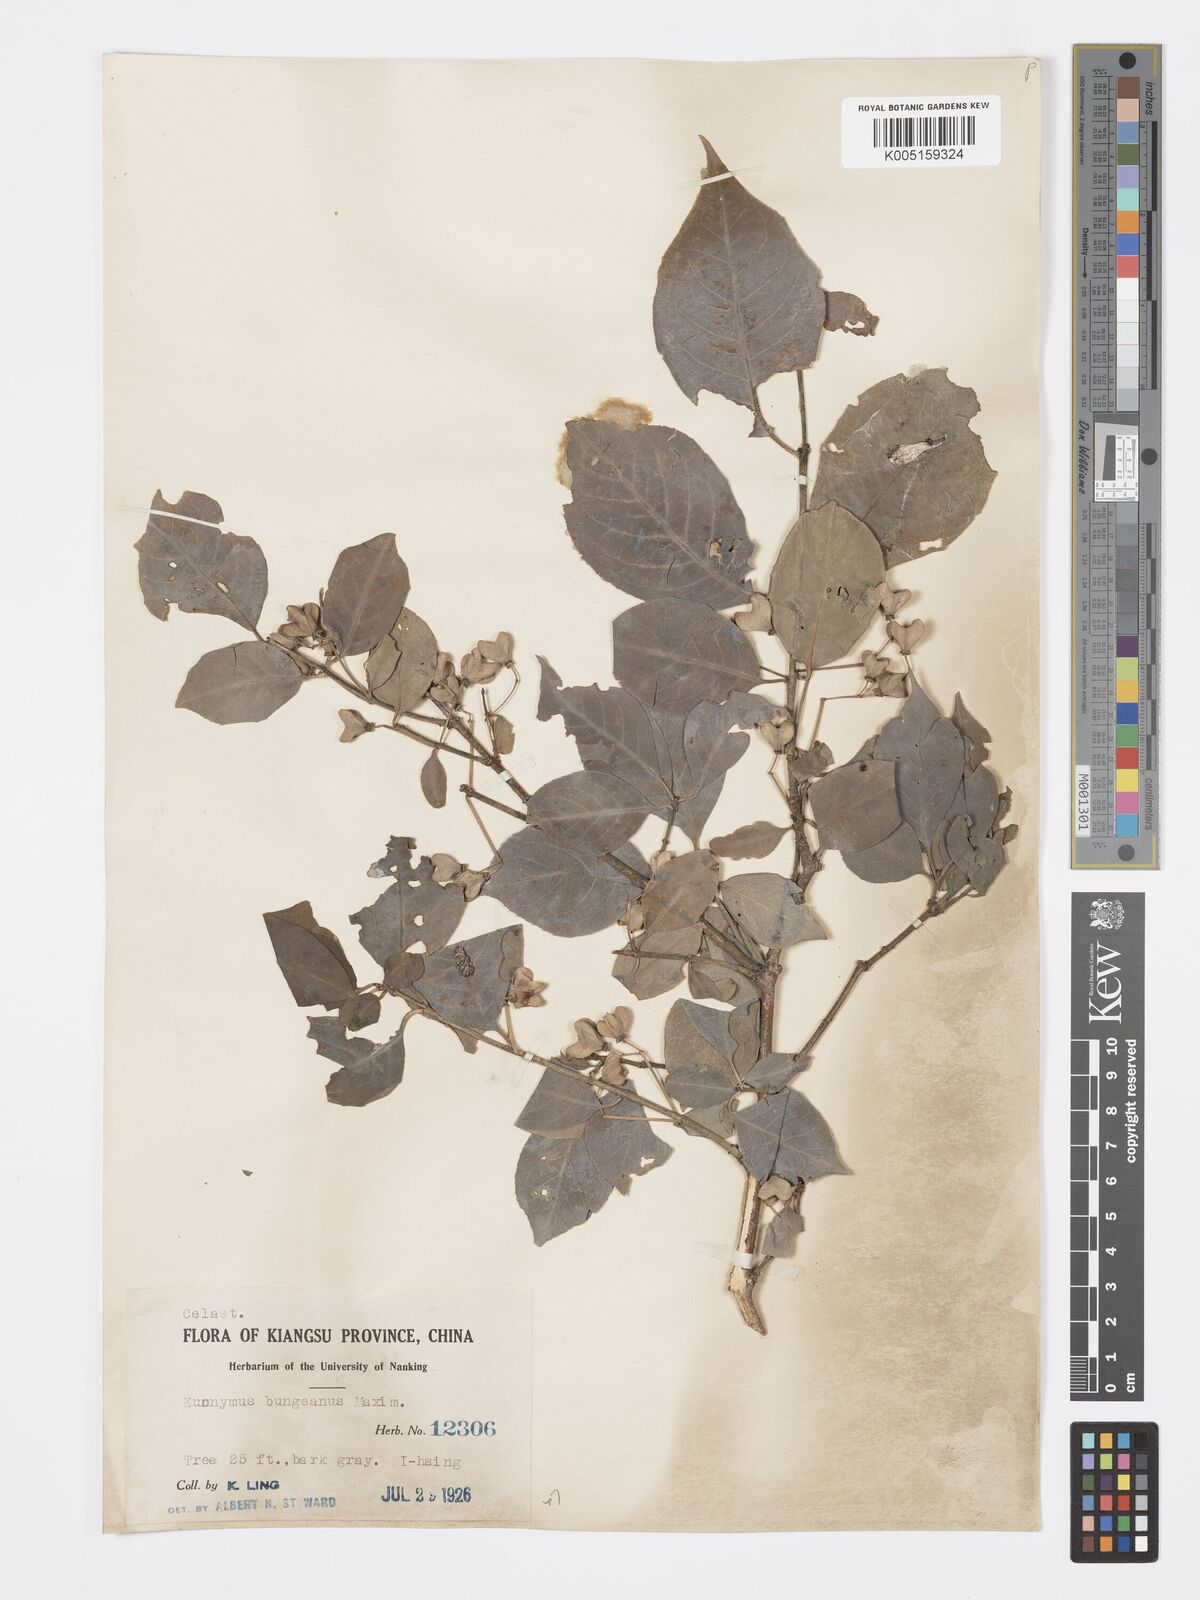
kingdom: Plantae
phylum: Tracheophyta
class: Magnoliopsida
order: Celastrales
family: Celastraceae
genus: Euonymus
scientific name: Euonymus maackii
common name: Hamilton's spindletree
